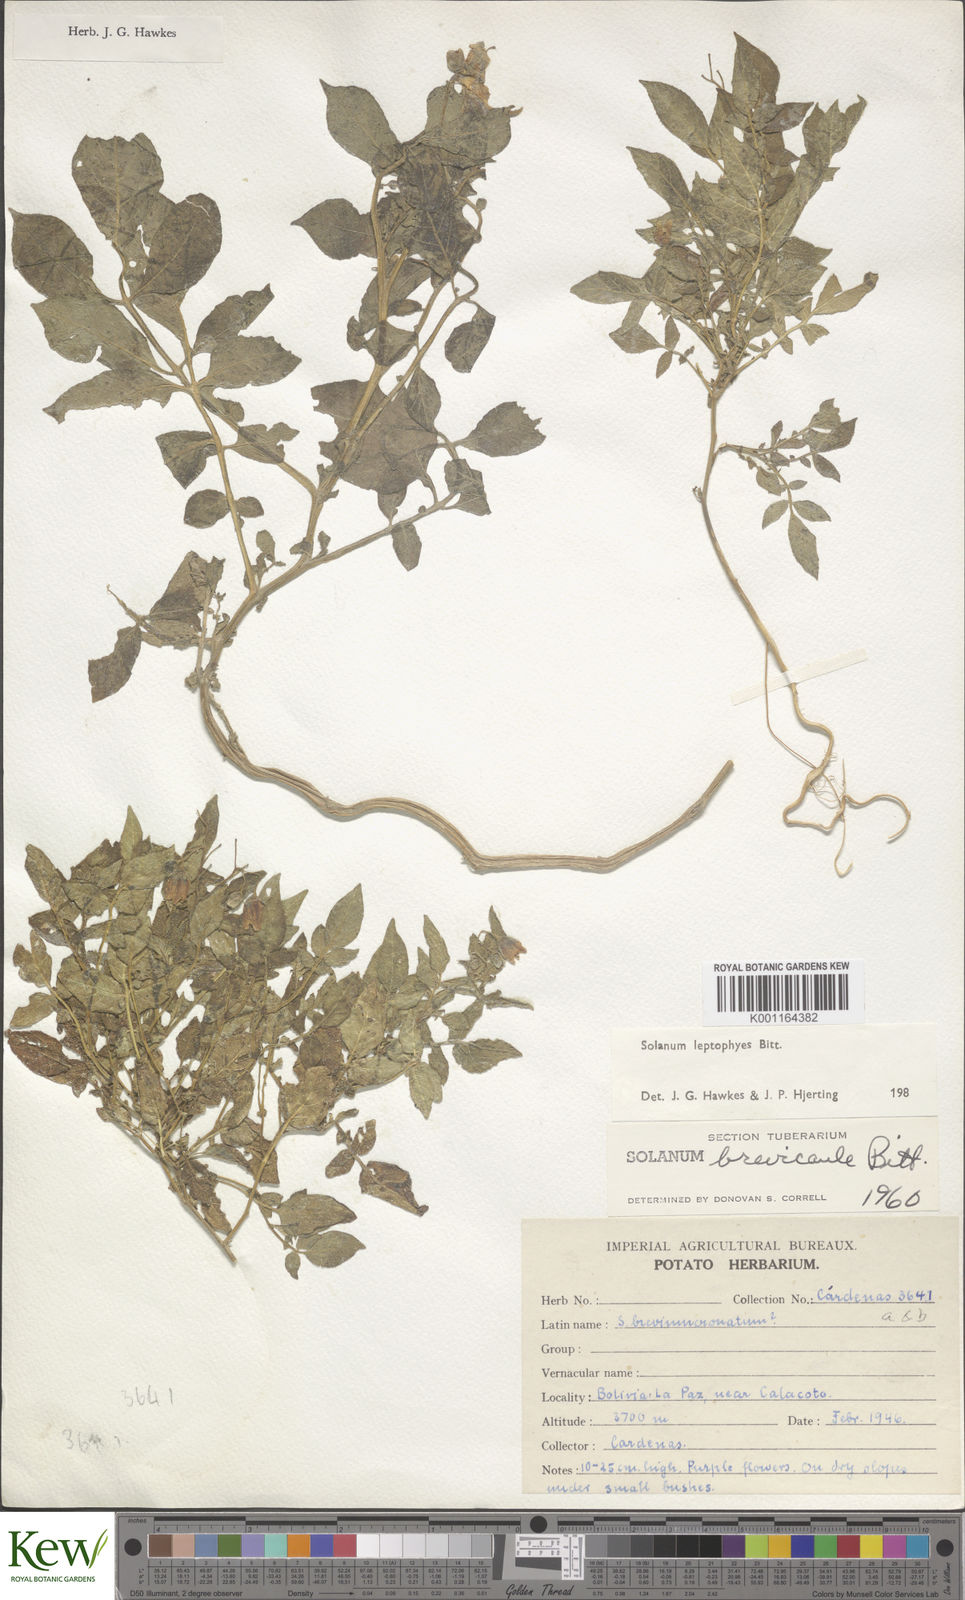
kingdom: Plantae
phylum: Tracheophyta
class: Magnoliopsida
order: Solanales
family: Solanaceae
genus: Solanum
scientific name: Solanum brevicaule
